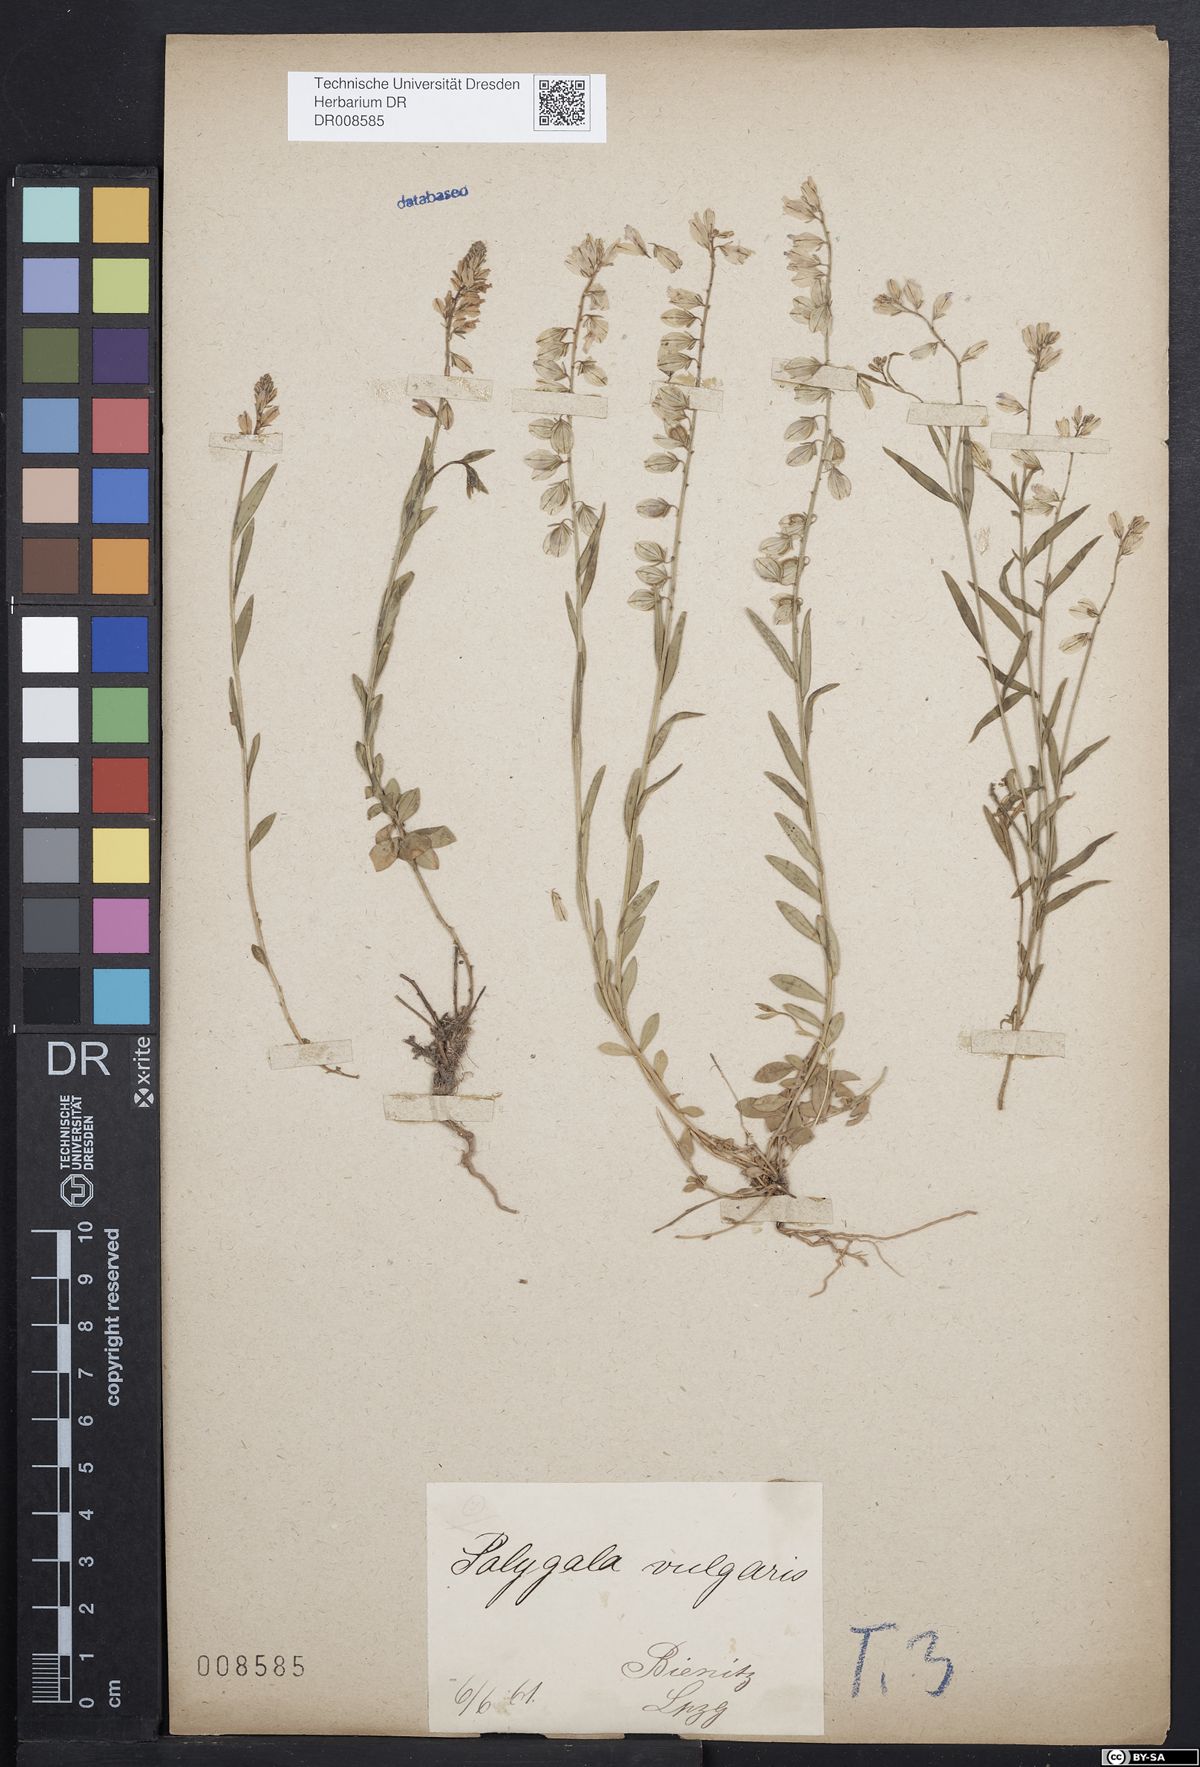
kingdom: Plantae
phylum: Tracheophyta
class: Magnoliopsida
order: Fabales
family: Polygalaceae
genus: Polygala
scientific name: Polygala vulgaris
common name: Common milkwort
